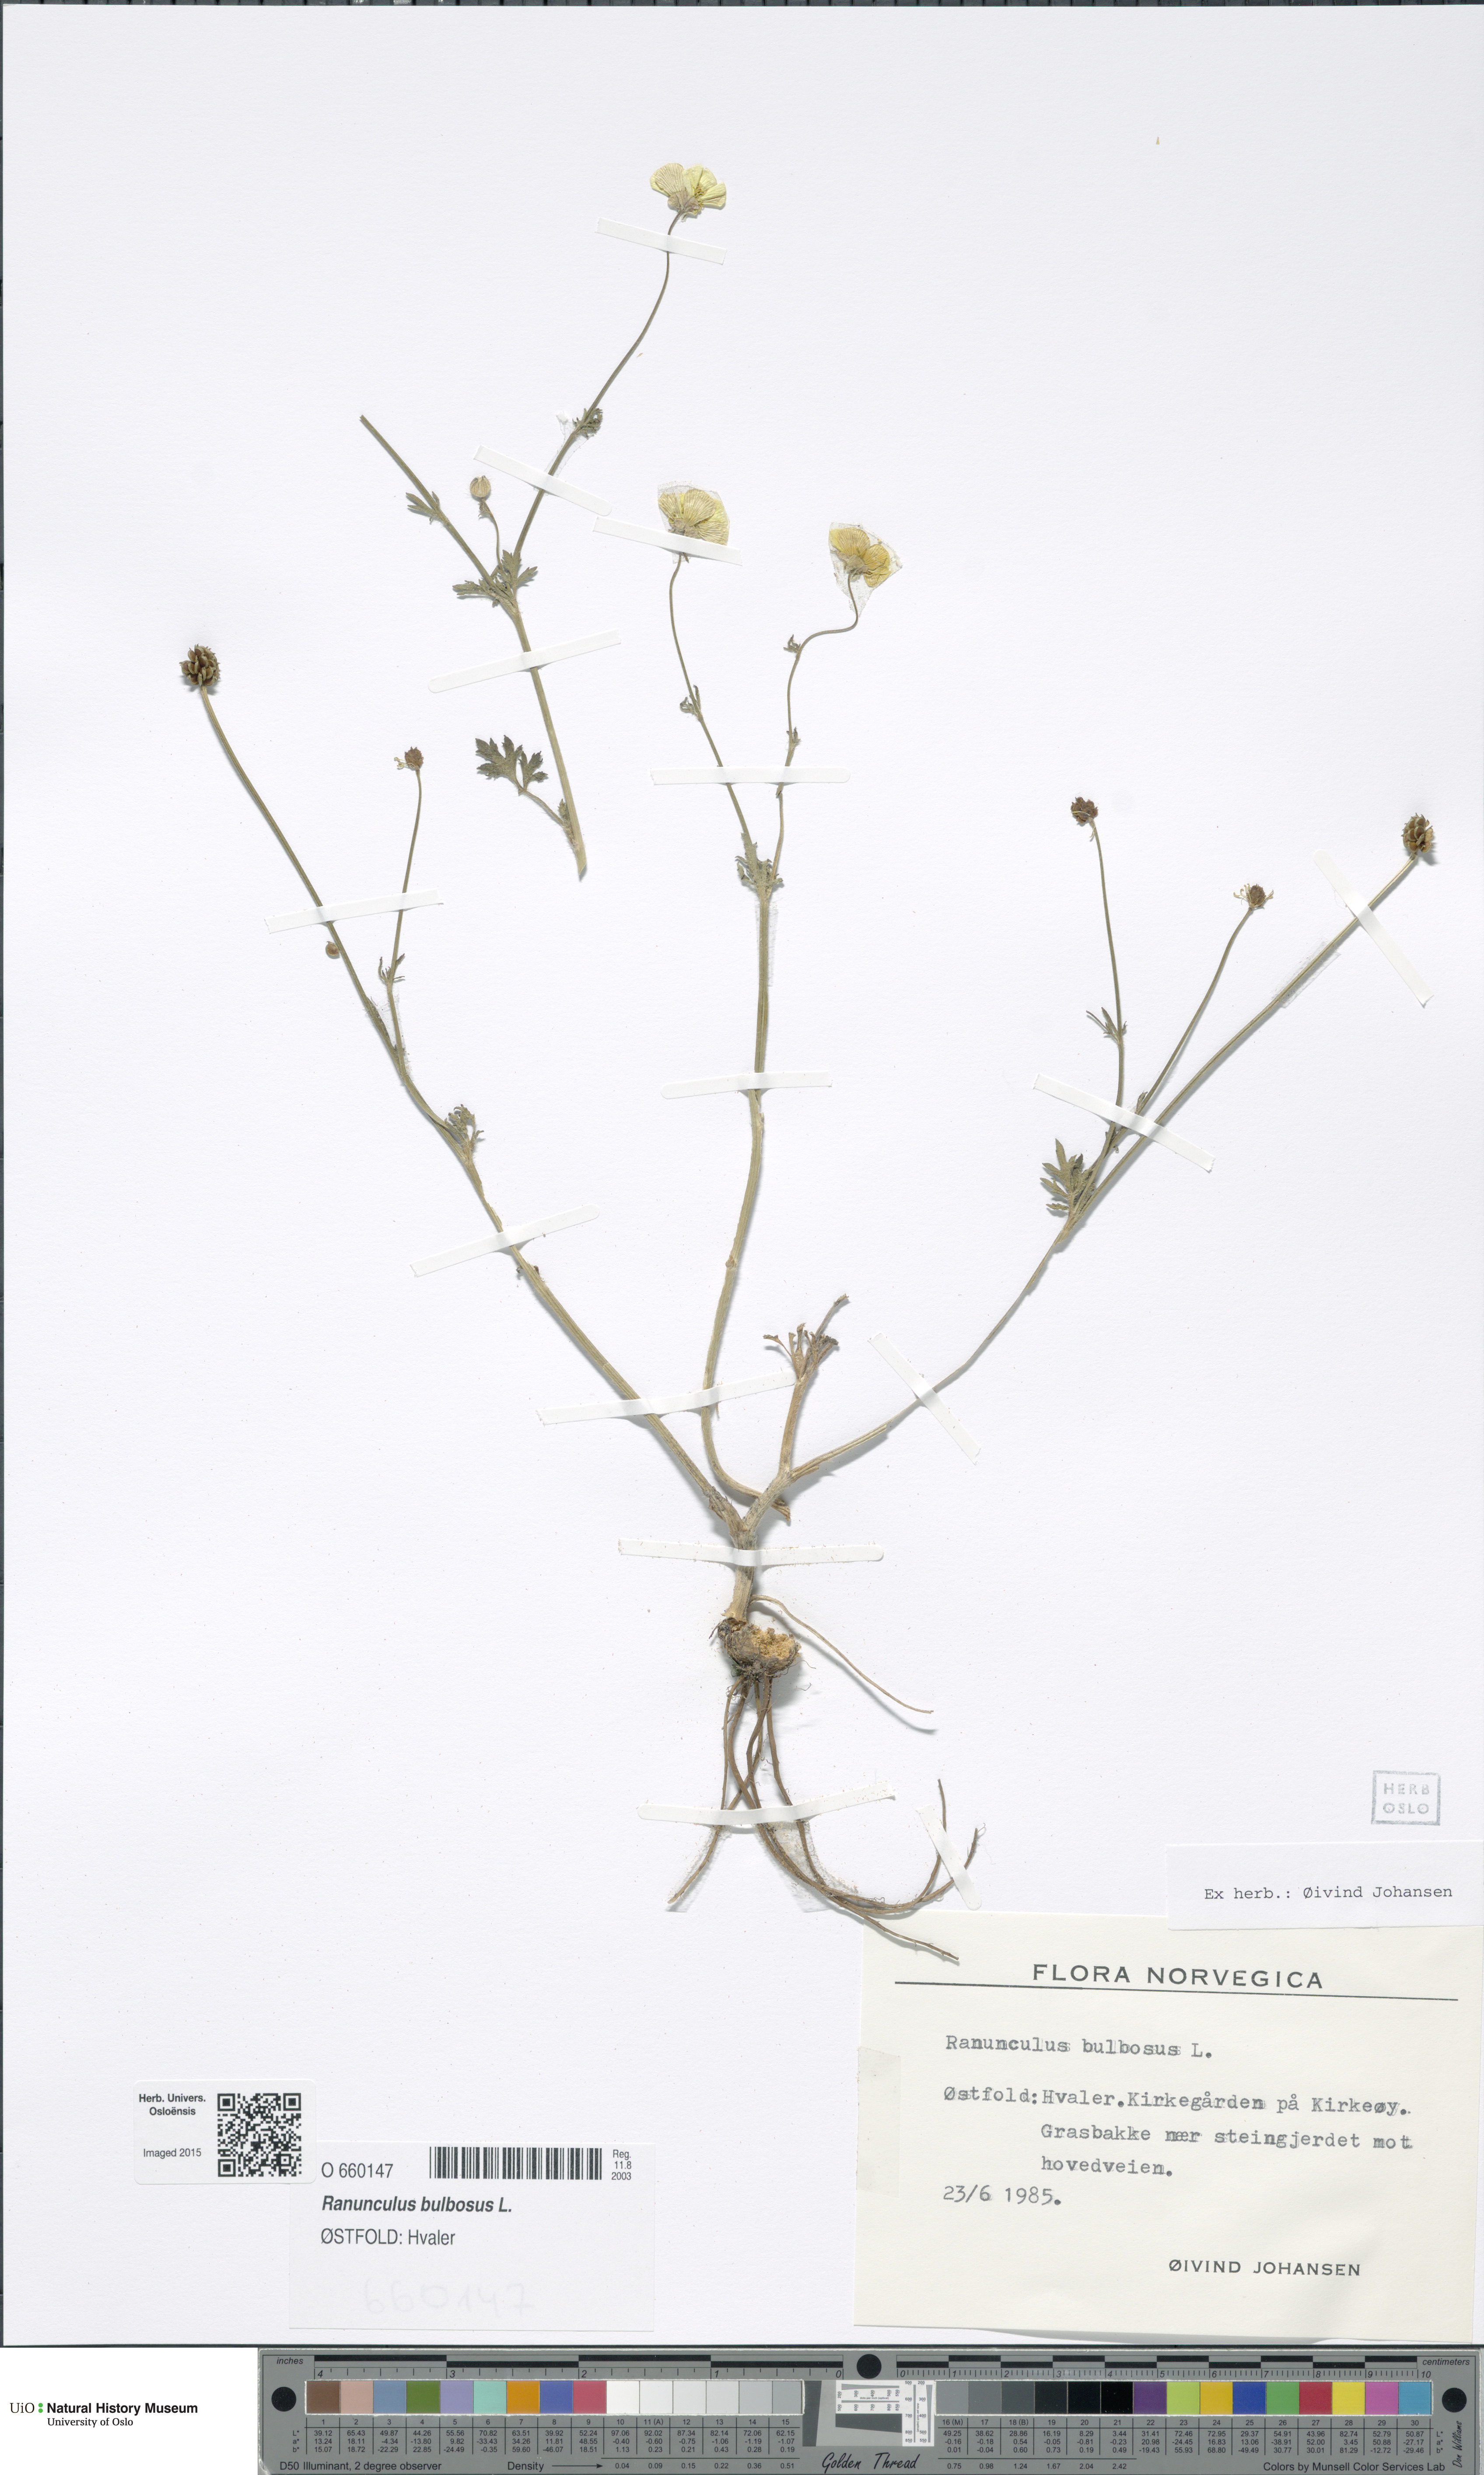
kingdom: Plantae
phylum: Tracheophyta
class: Magnoliopsida
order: Ranunculales
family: Ranunculaceae
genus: Ranunculus
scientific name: Ranunculus bulbosus
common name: Bulbous buttercup
